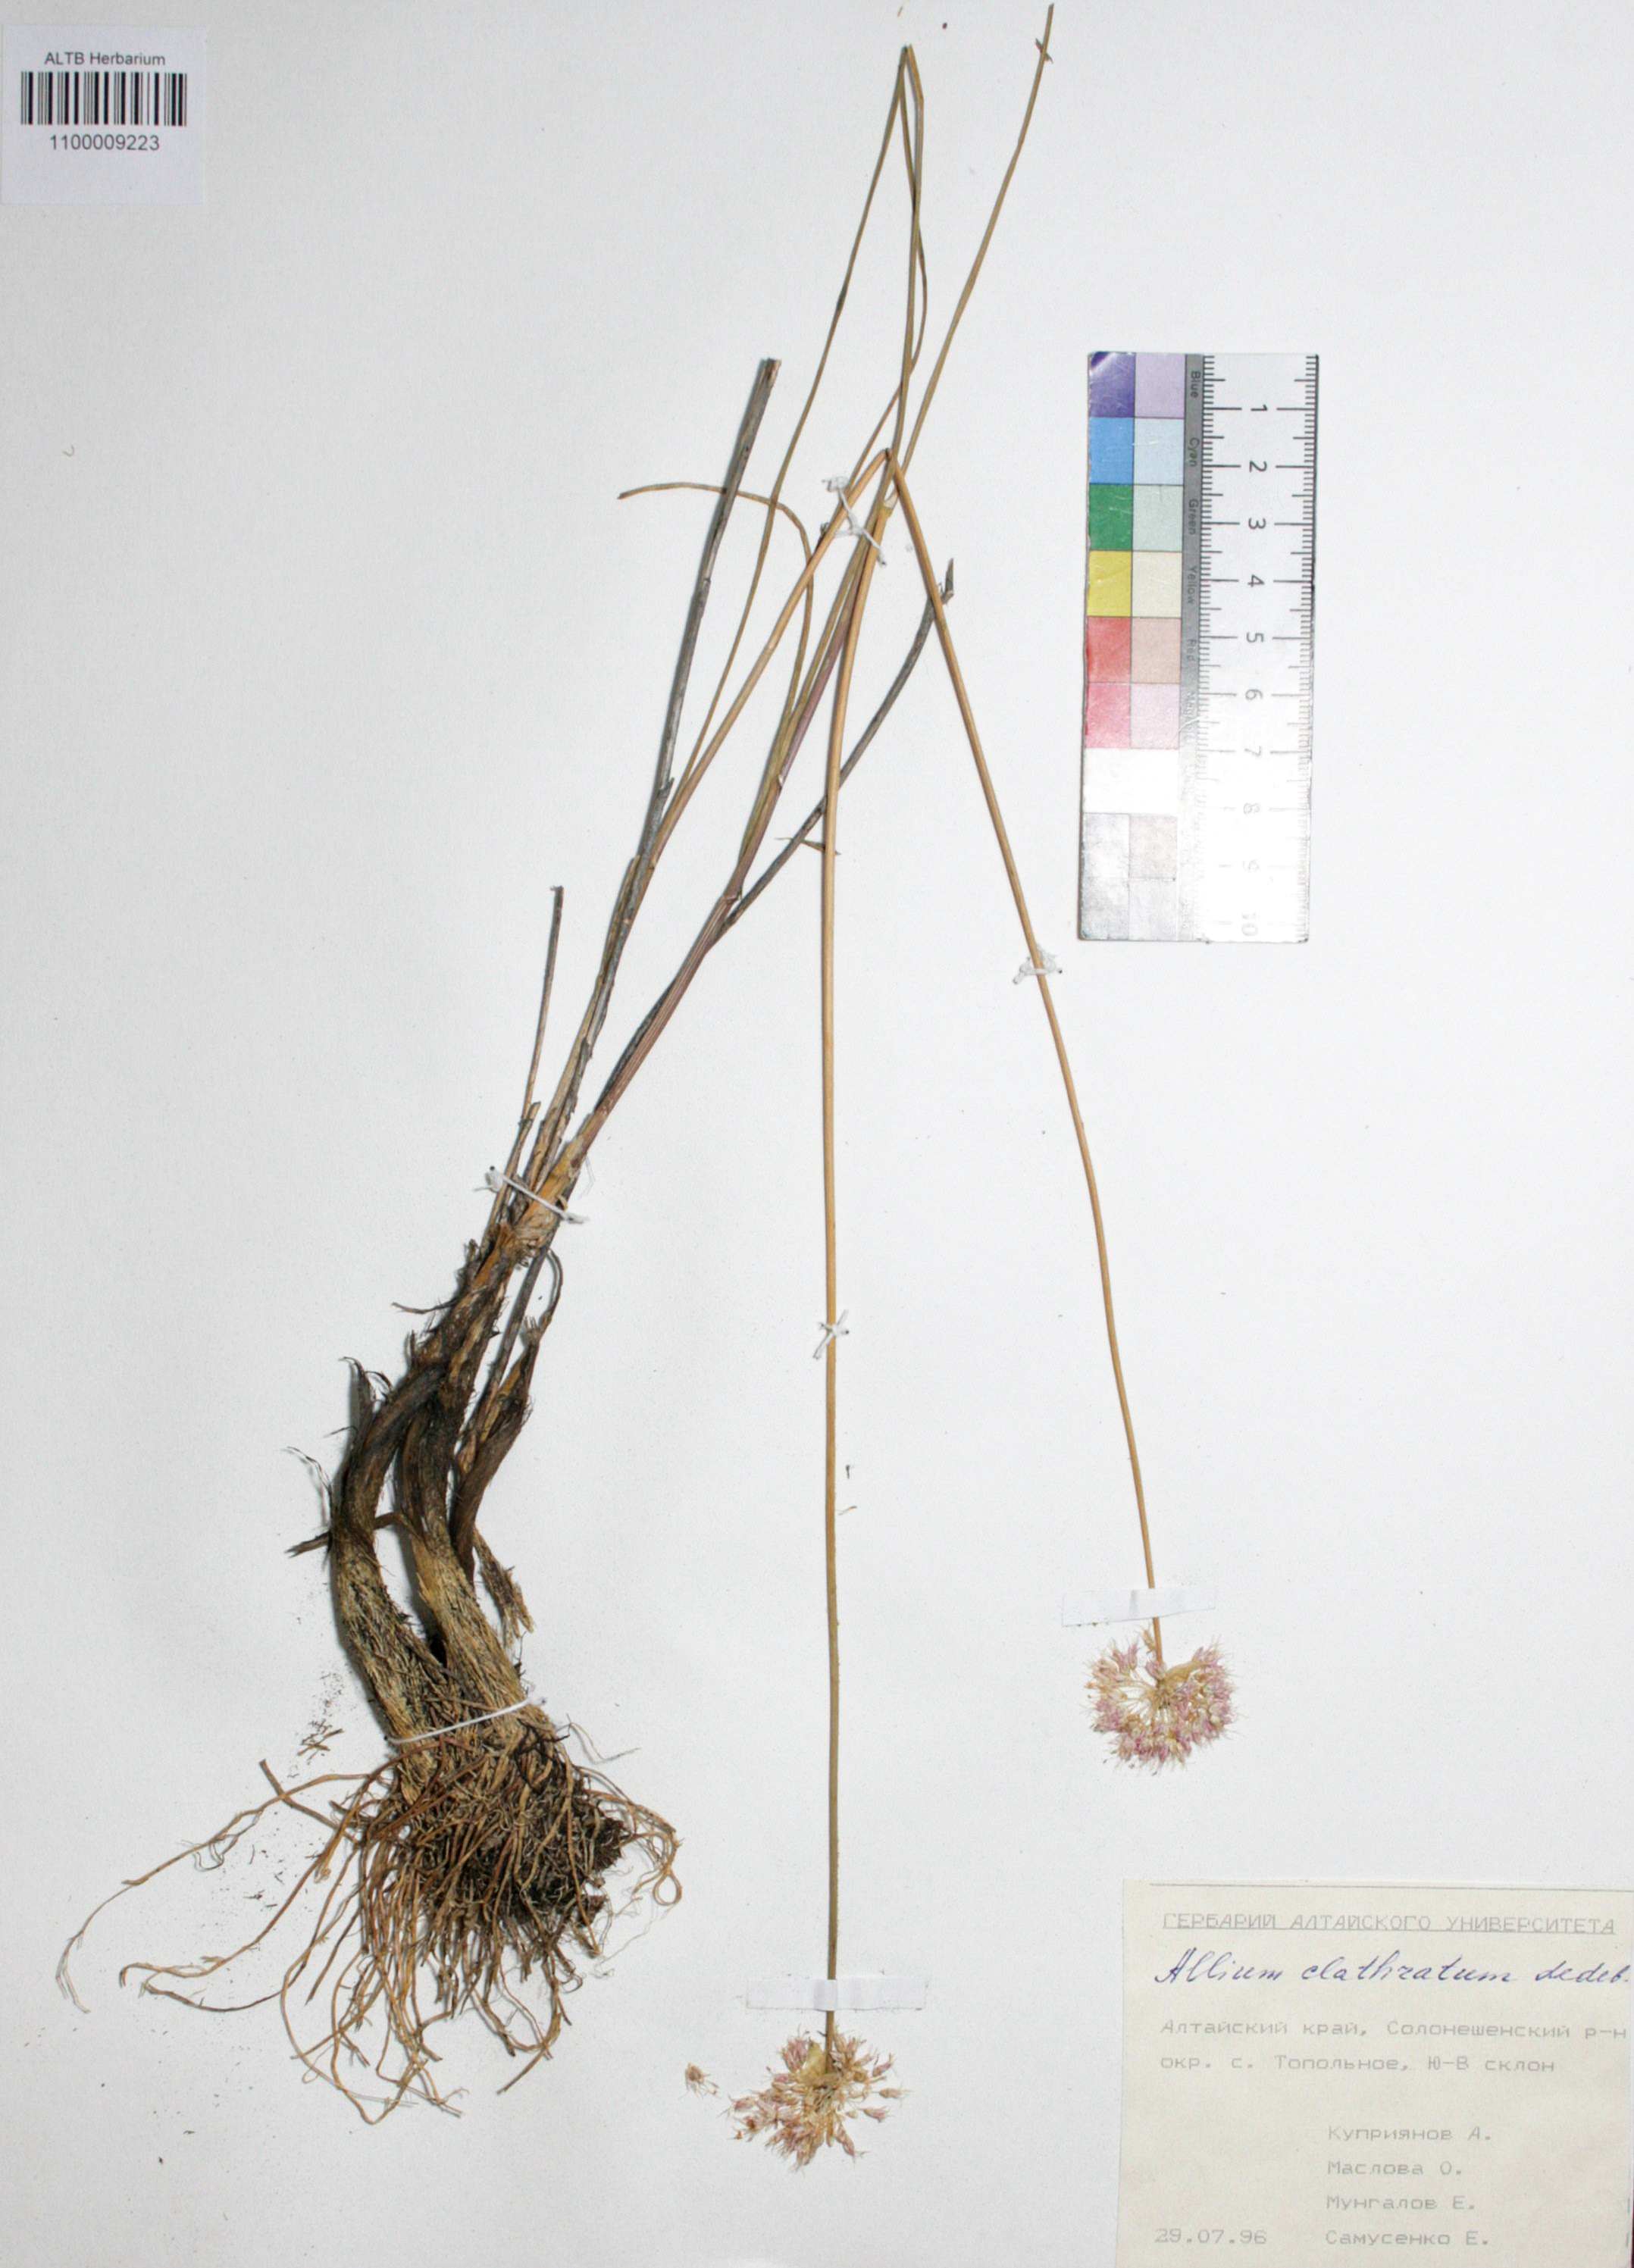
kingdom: Plantae
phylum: Tracheophyta
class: Liliopsida
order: Asparagales
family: Amaryllidaceae
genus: Allium
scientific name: Allium clathratum
